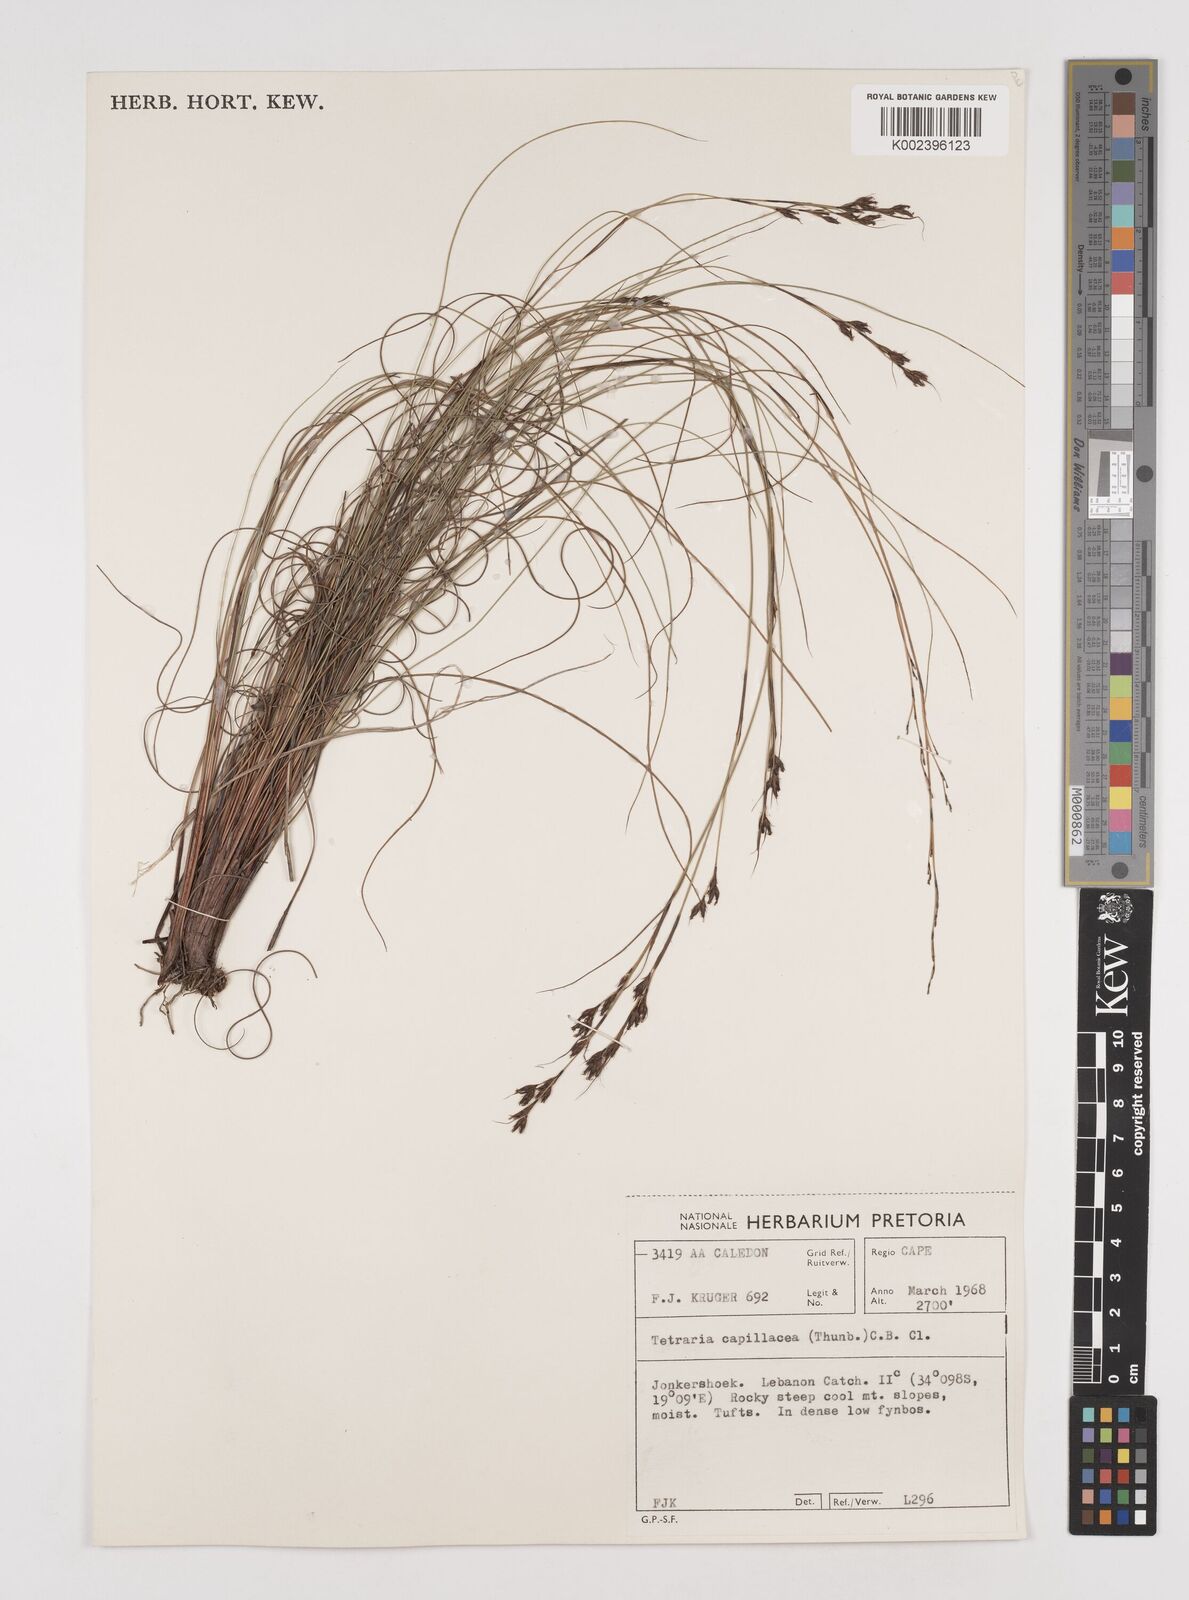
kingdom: Plantae
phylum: Tracheophyta
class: Liliopsida
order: Poales
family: Cyperaceae
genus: Tetraria
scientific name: Tetraria capillacea
